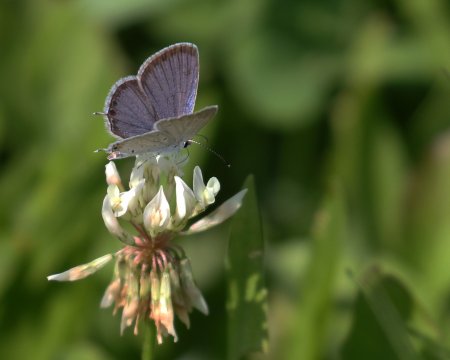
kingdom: Animalia
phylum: Arthropoda
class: Insecta
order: Lepidoptera
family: Lycaenidae
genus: Elkalyce
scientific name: Elkalyce comyntas
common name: Eastern Tailed-Blue
